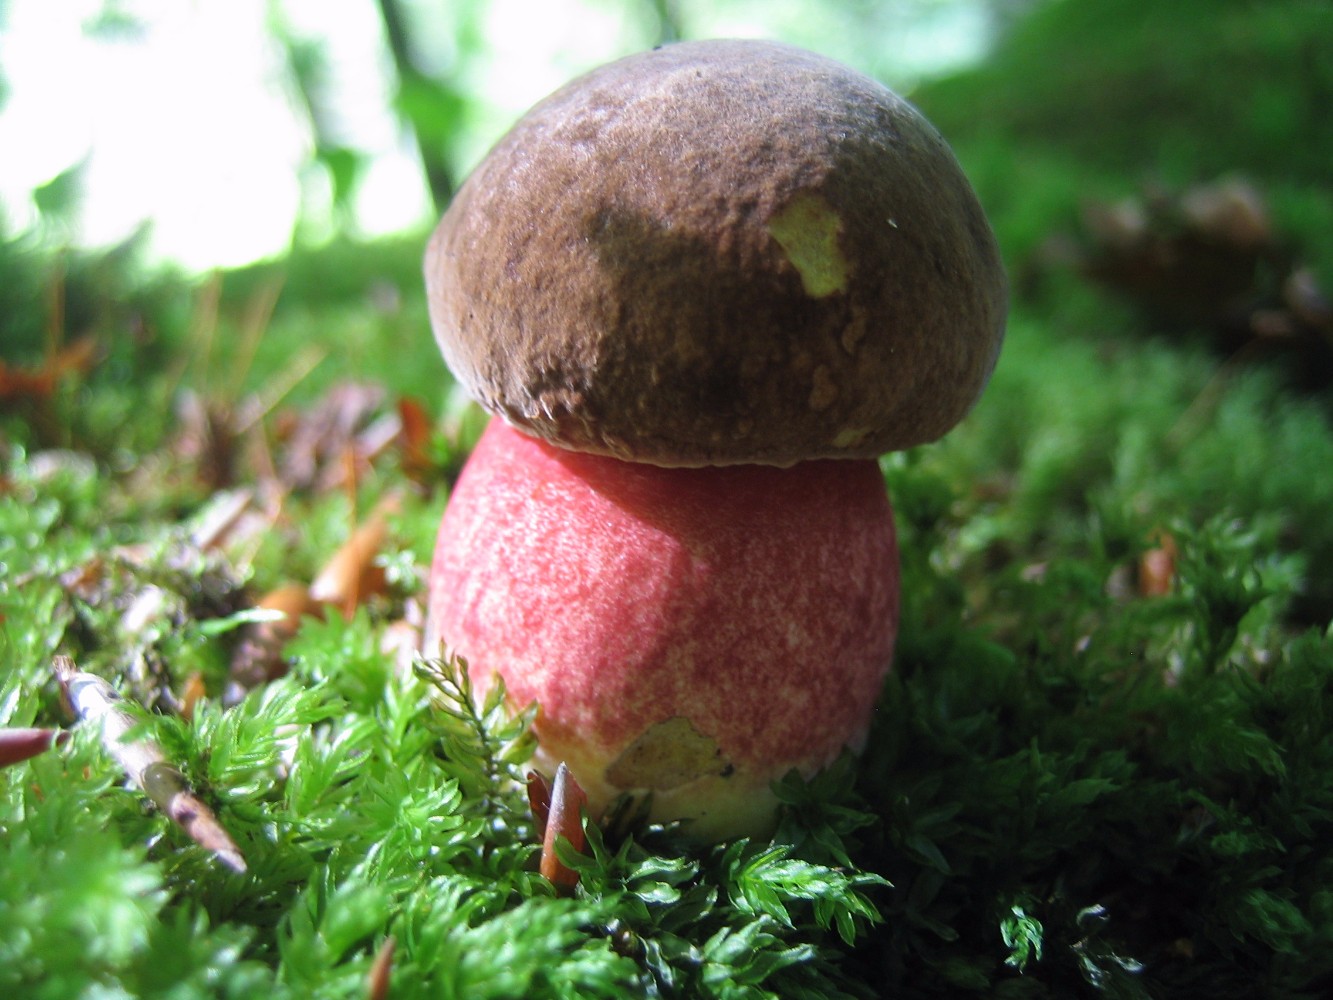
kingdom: Fungi
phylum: Basidiomycota
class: Agaricomycetes
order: Boletales
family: Boletaceae
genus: Neoboletus
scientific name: Neoboletus erythropus
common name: punktstokket indigorørhat
